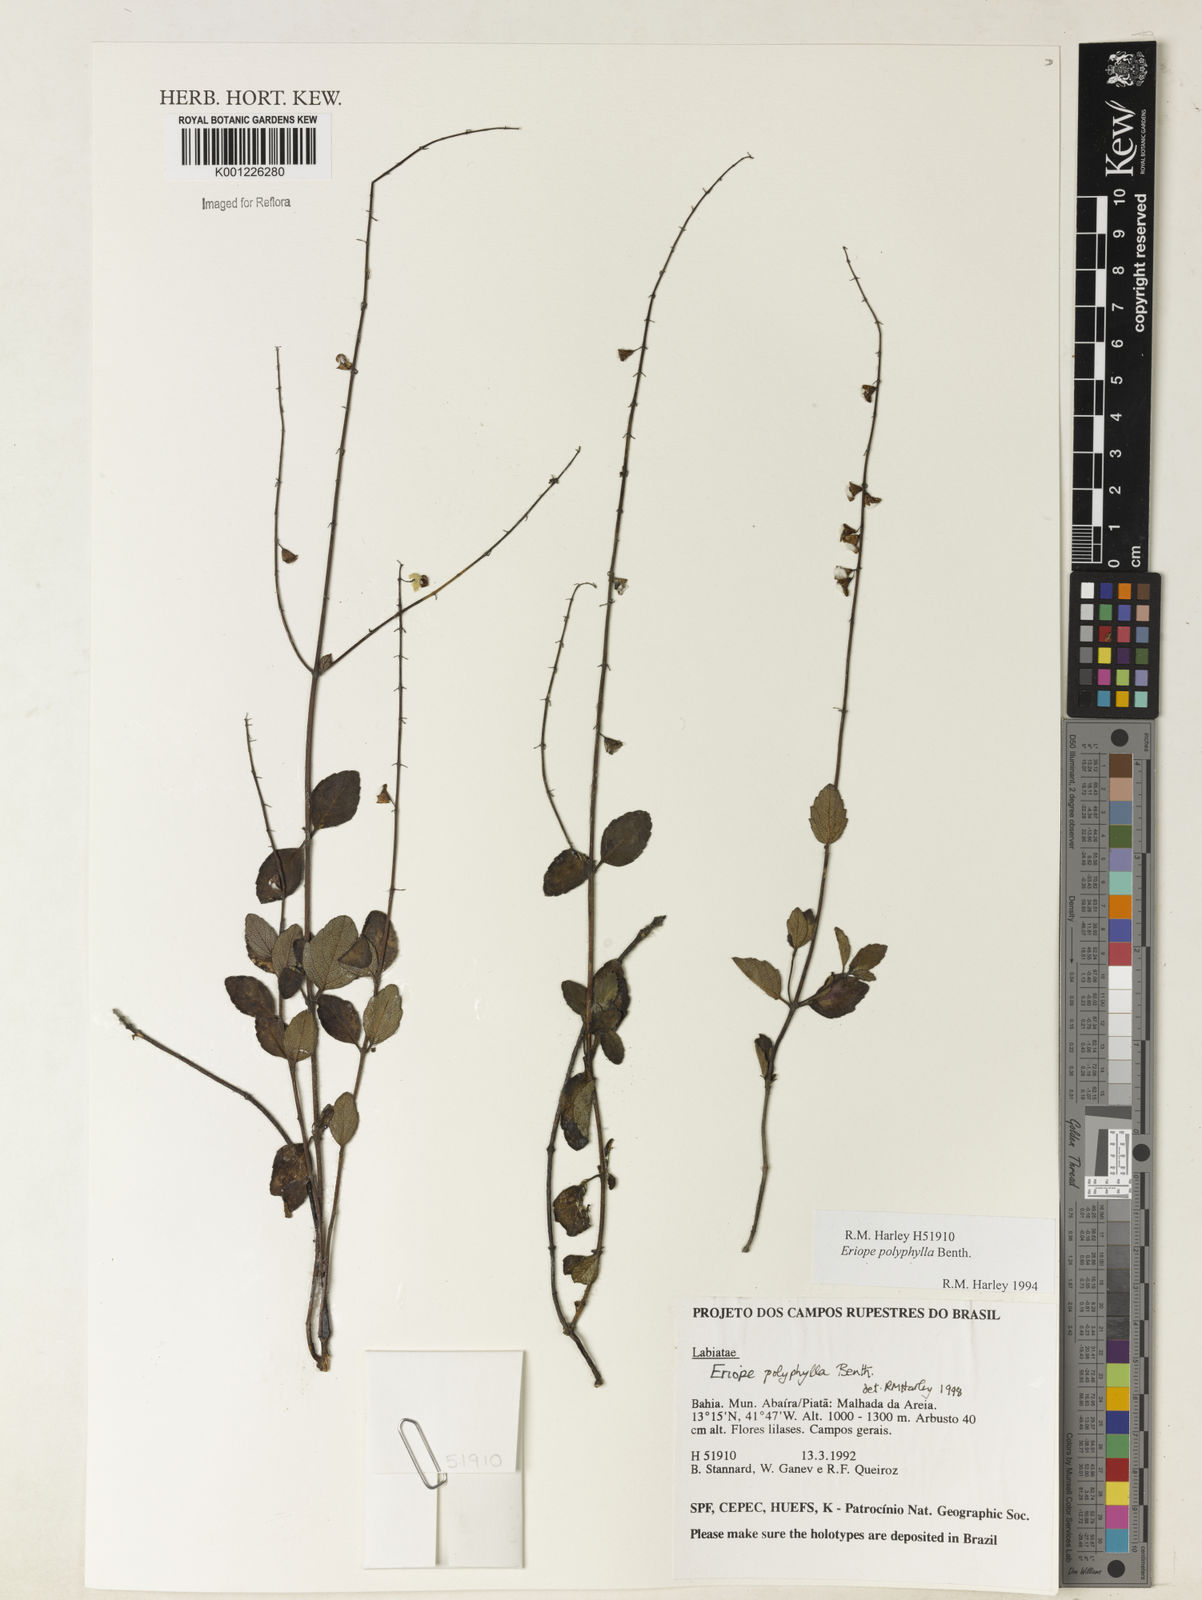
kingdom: Plantae
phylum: Tracheophyta
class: Magnoliopsida
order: Lamiales
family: Lamiaceae
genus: Eriope
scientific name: Eriope polyphylla
